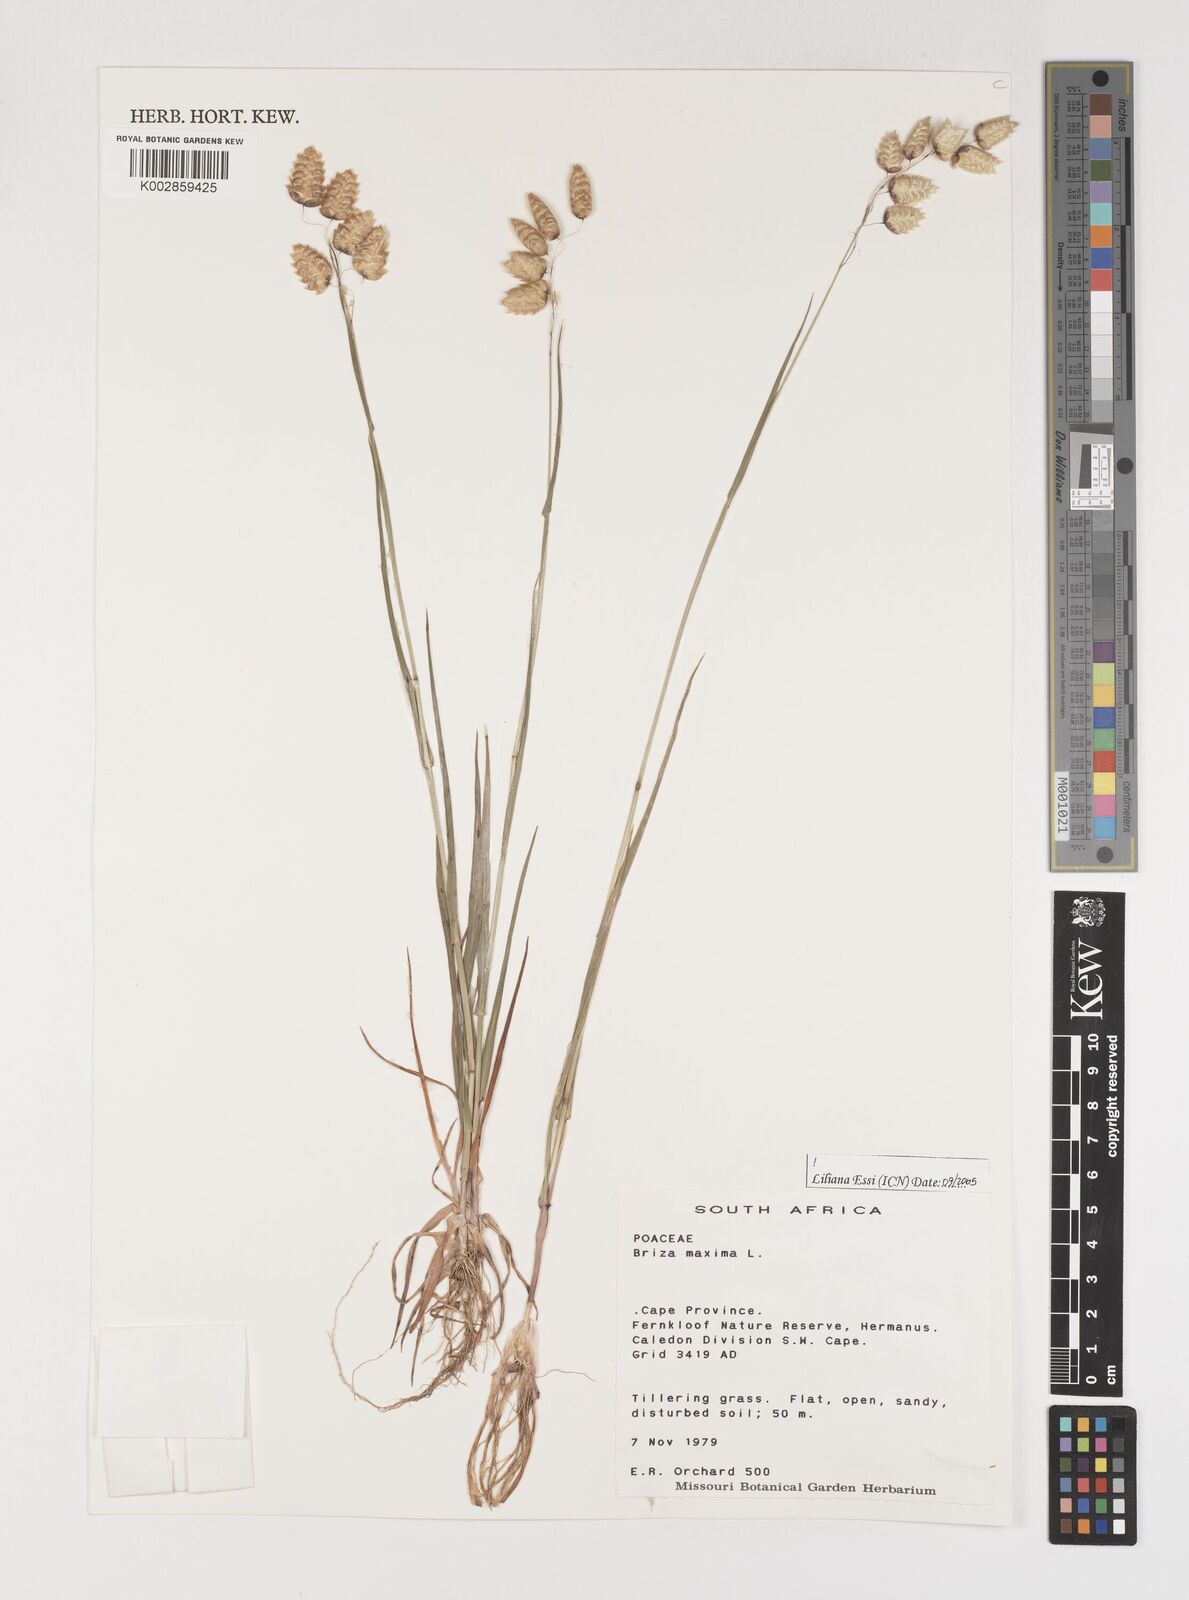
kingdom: Plantae
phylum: Tracheophyta
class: Liliopsida
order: Poales
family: Poaceae
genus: Briza
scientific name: Briza maxima
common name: Big quakinggrass
